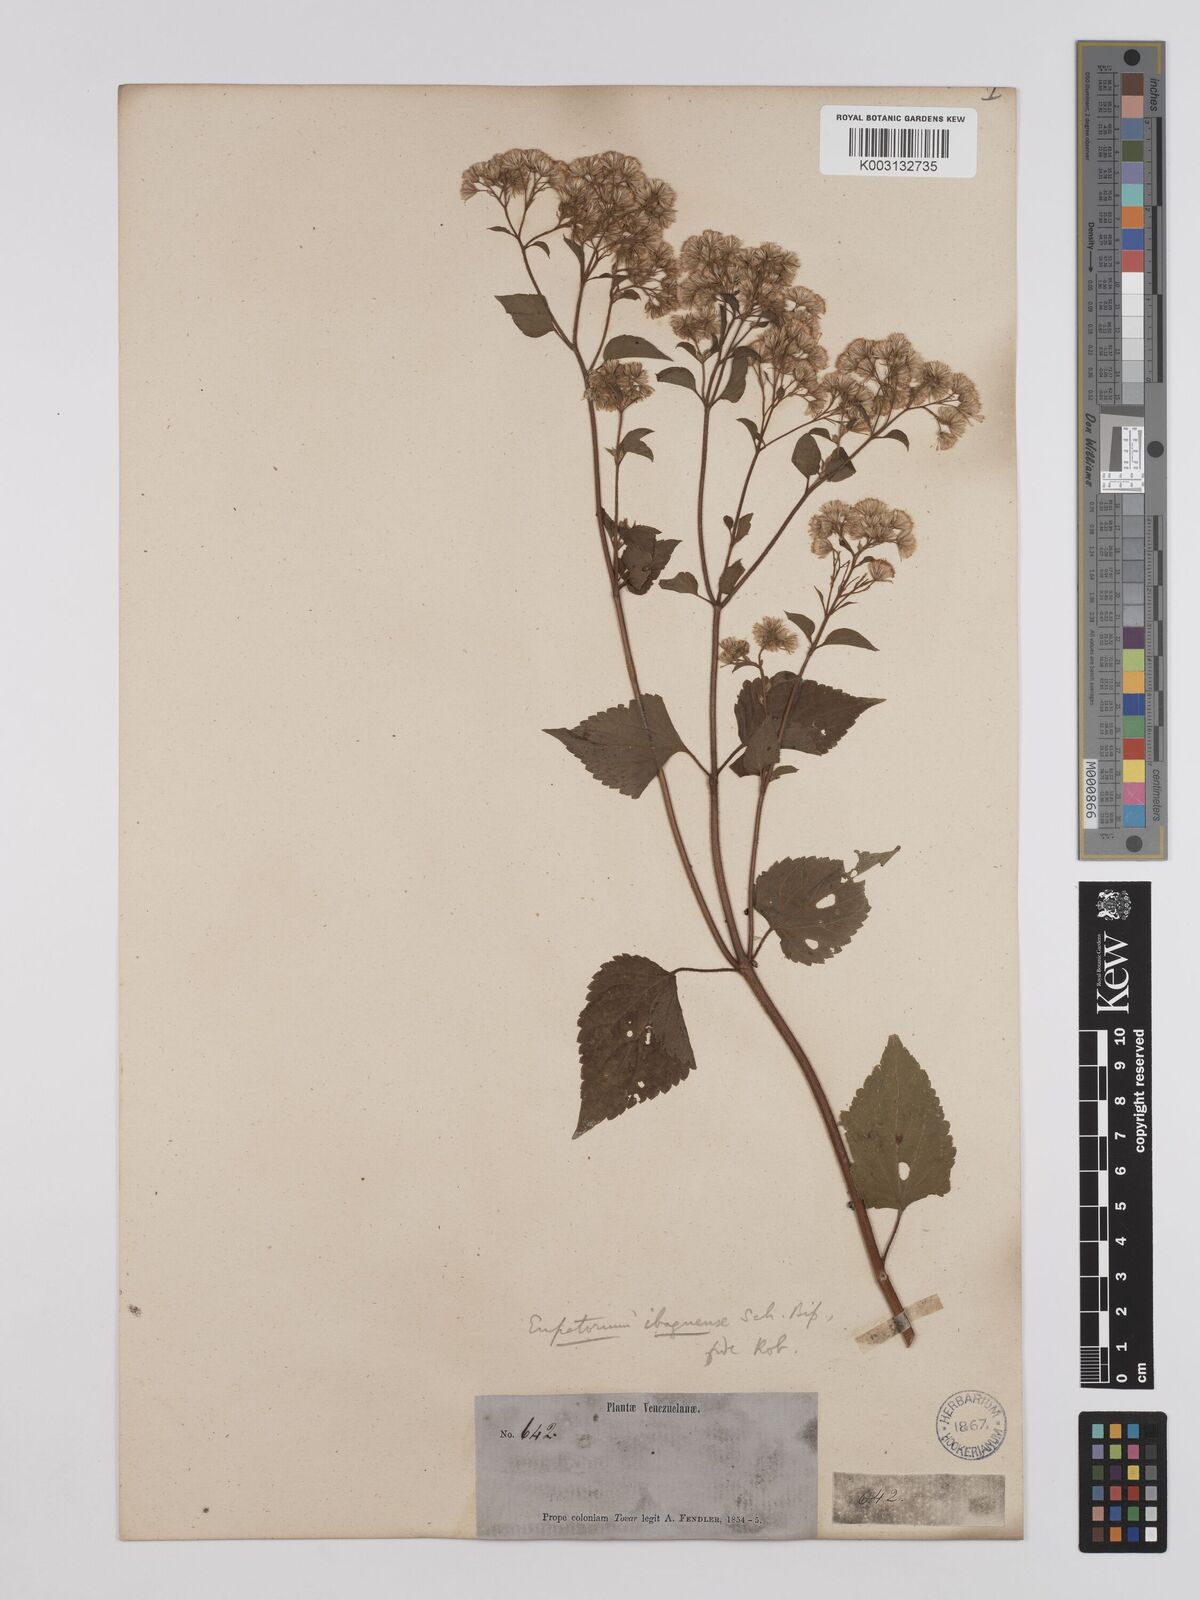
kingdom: Plantae
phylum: Tracheophyta
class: Magnoliopsida
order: Asterales
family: Asteraceae
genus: Ageratina
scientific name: Ageratina ibaguensis
